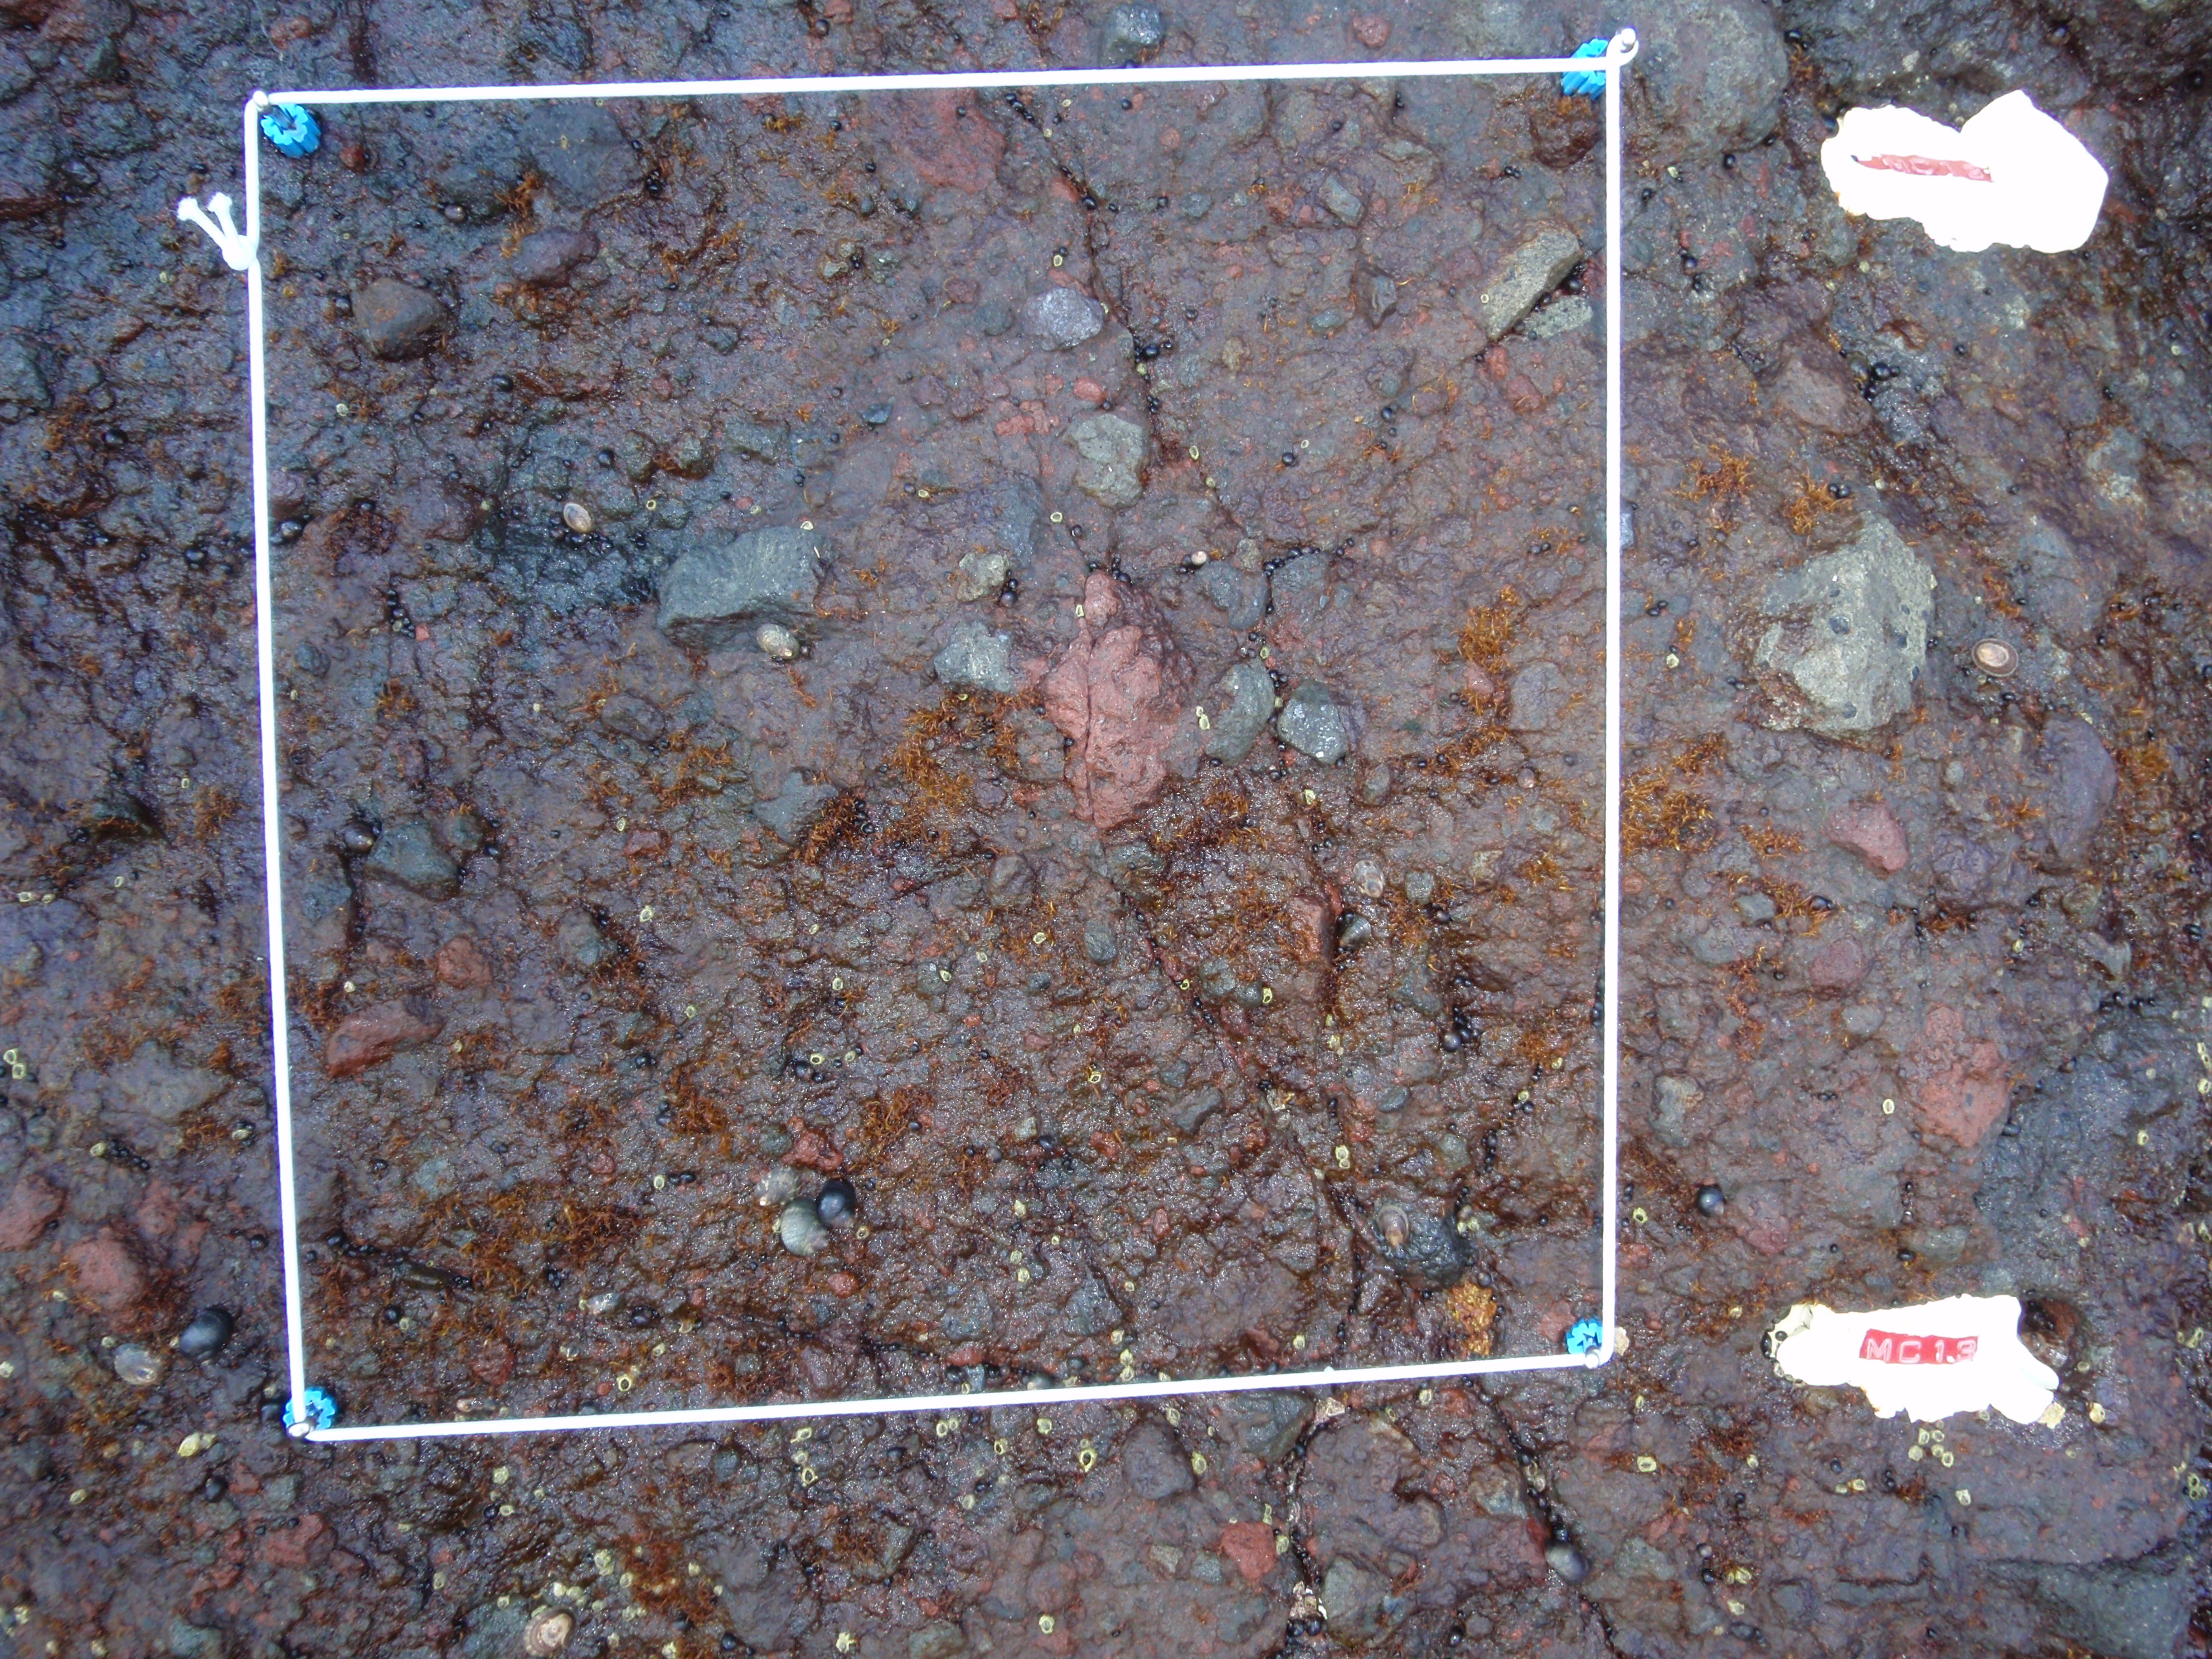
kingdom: Chromista
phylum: Ochrophyta
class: Phaeophyceae
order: Scytosiphonales
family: Scytosiphonaceae
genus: Analipus
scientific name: Analipus japonicus
